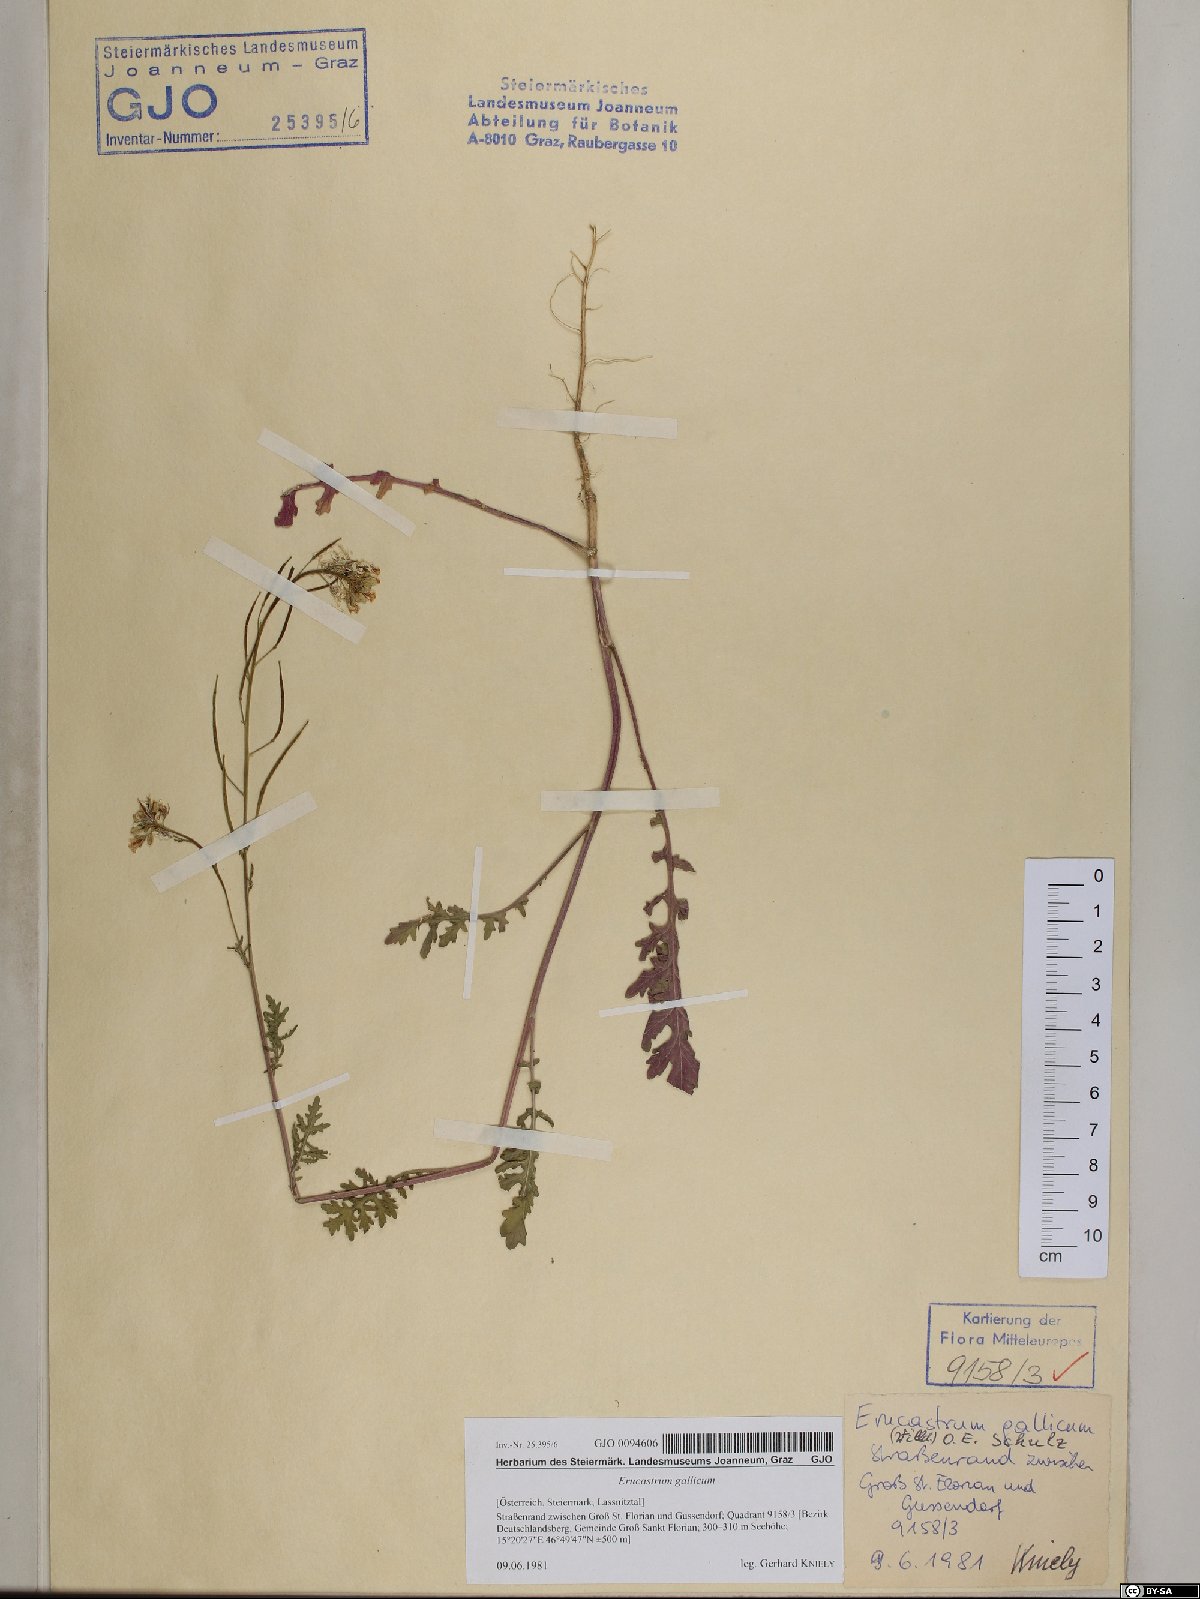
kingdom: Plantae
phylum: Tracheophyta
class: Magnoliopsida
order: Brassicales
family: Brassicaceae
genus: Erucastrum
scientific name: Erucastrum gallicum
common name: Hairy rocket
